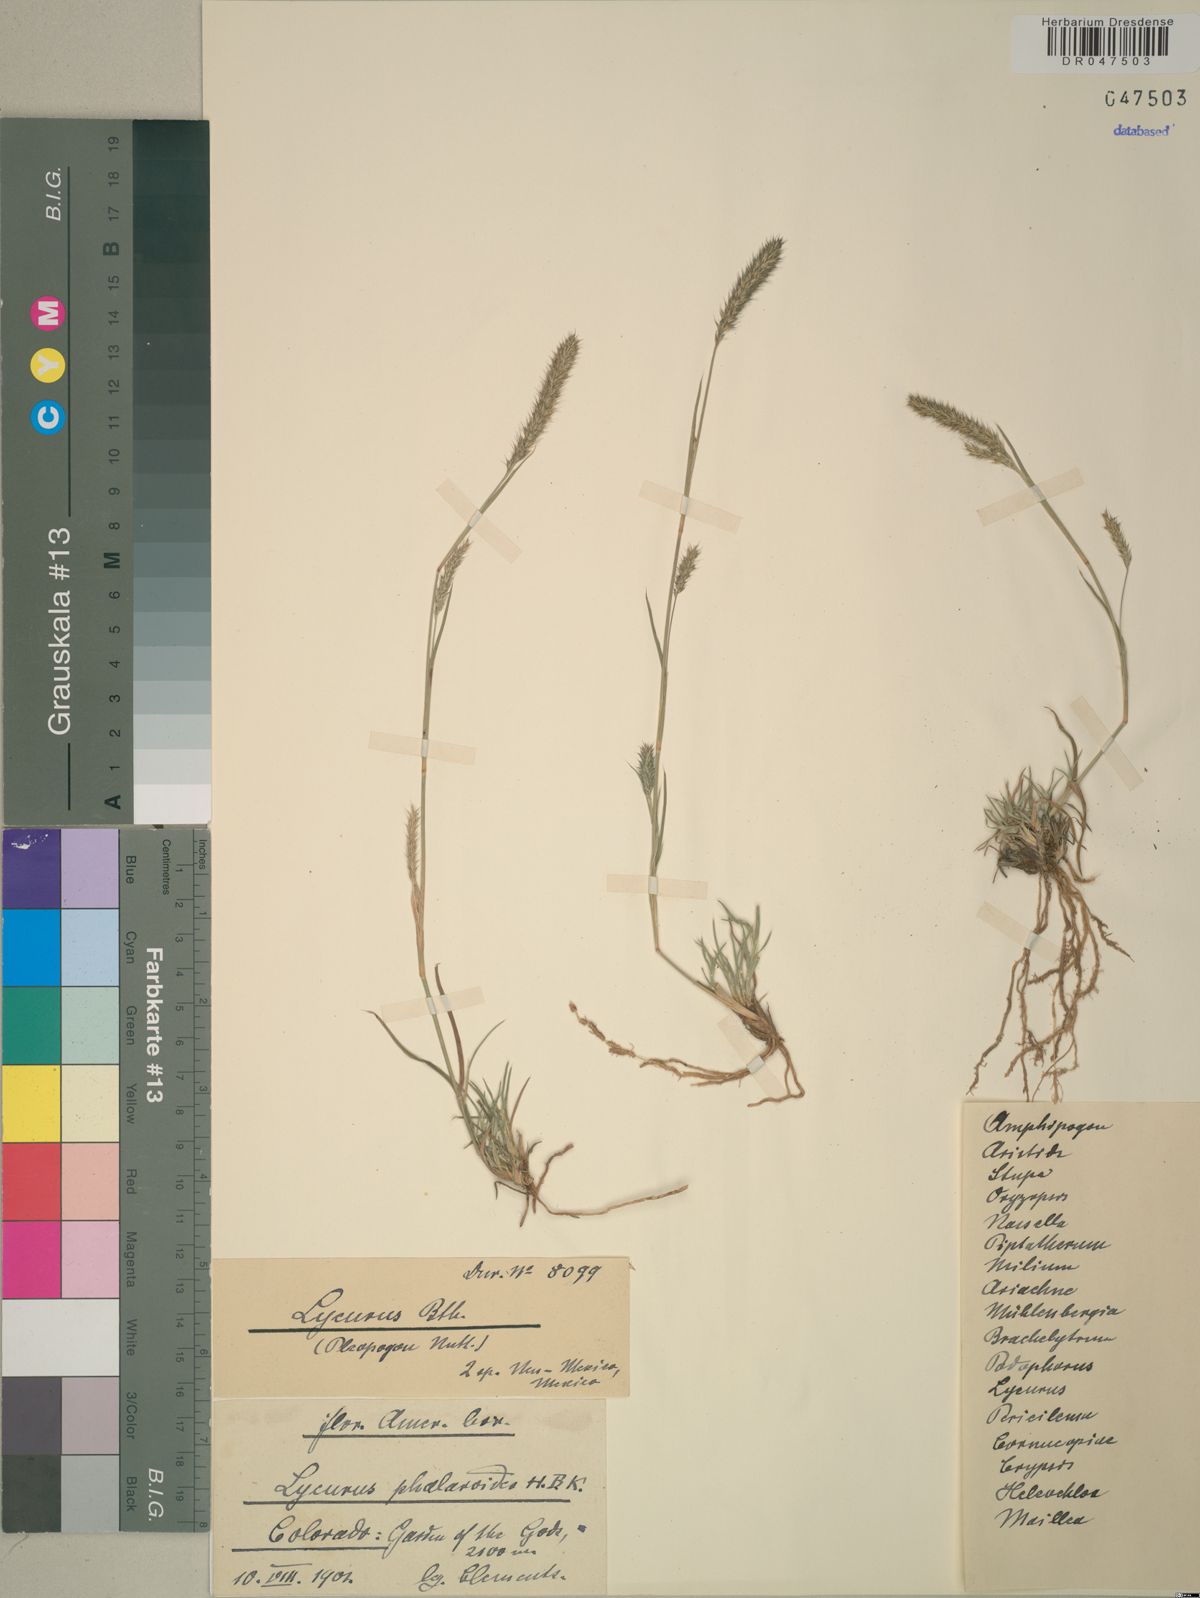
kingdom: Plantae
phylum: Tracheophyta
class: Liliopsida
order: Poales
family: Poaceae
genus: Muhlenbergia
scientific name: Muhlenbergia phalaroides
